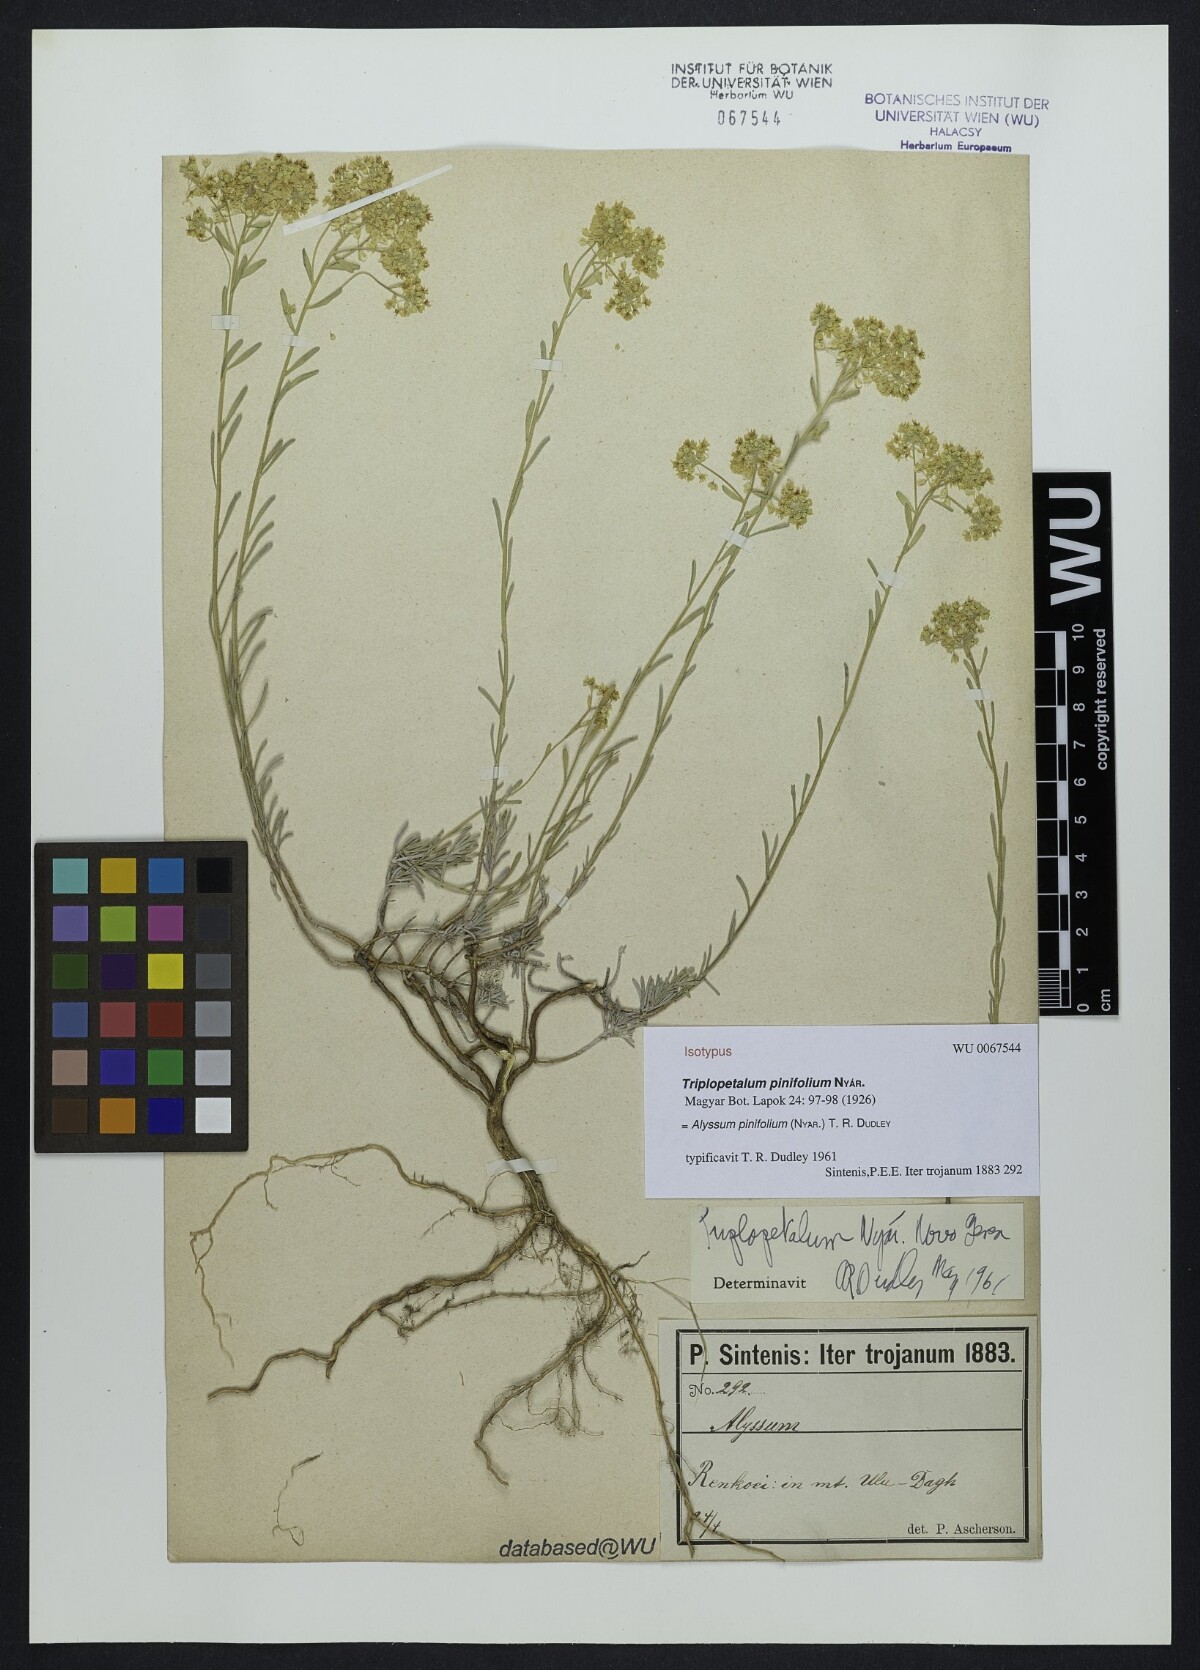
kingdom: Plantae
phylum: Tracheophyta
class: Magnoliopsida
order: Brassicales
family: Brassicaceae
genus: Odontarrhena
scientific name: Odontarrhena pinifolia
